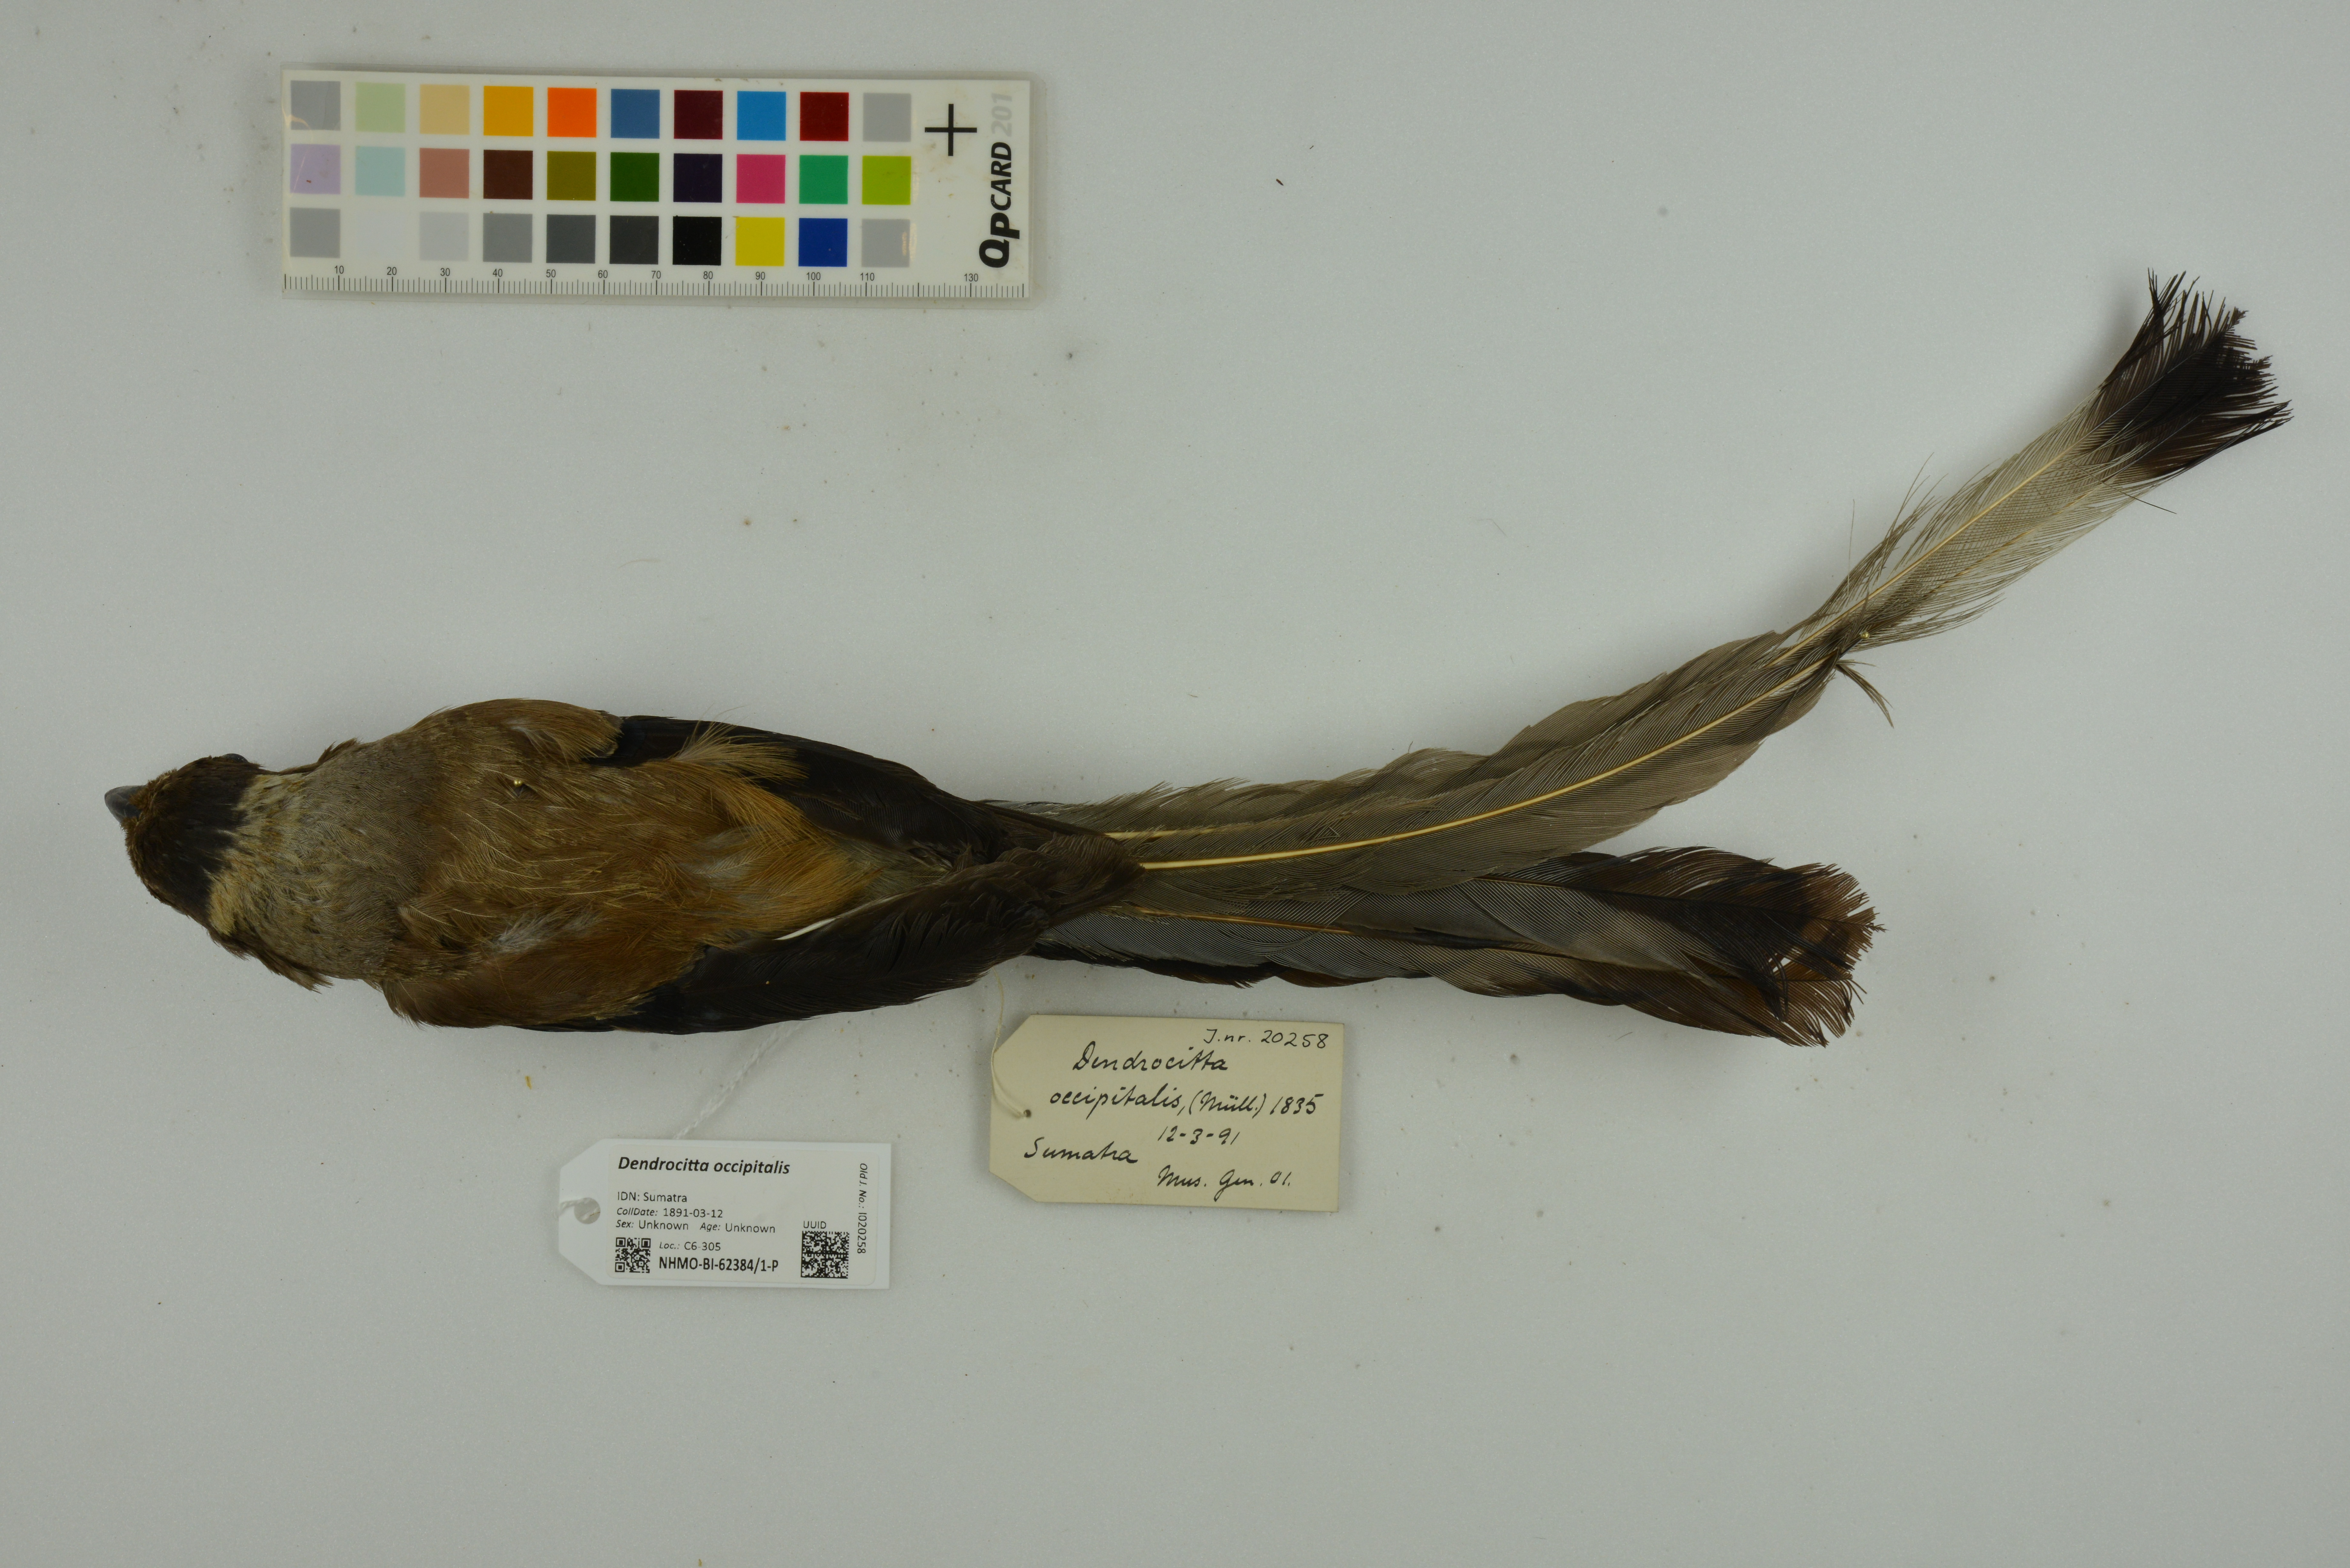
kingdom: Animalia
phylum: Chordata
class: Aves
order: Passeriformes
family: Corvidae
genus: Dendrocitta
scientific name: Dendrocitta occipitalis
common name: Sumatran treepie
